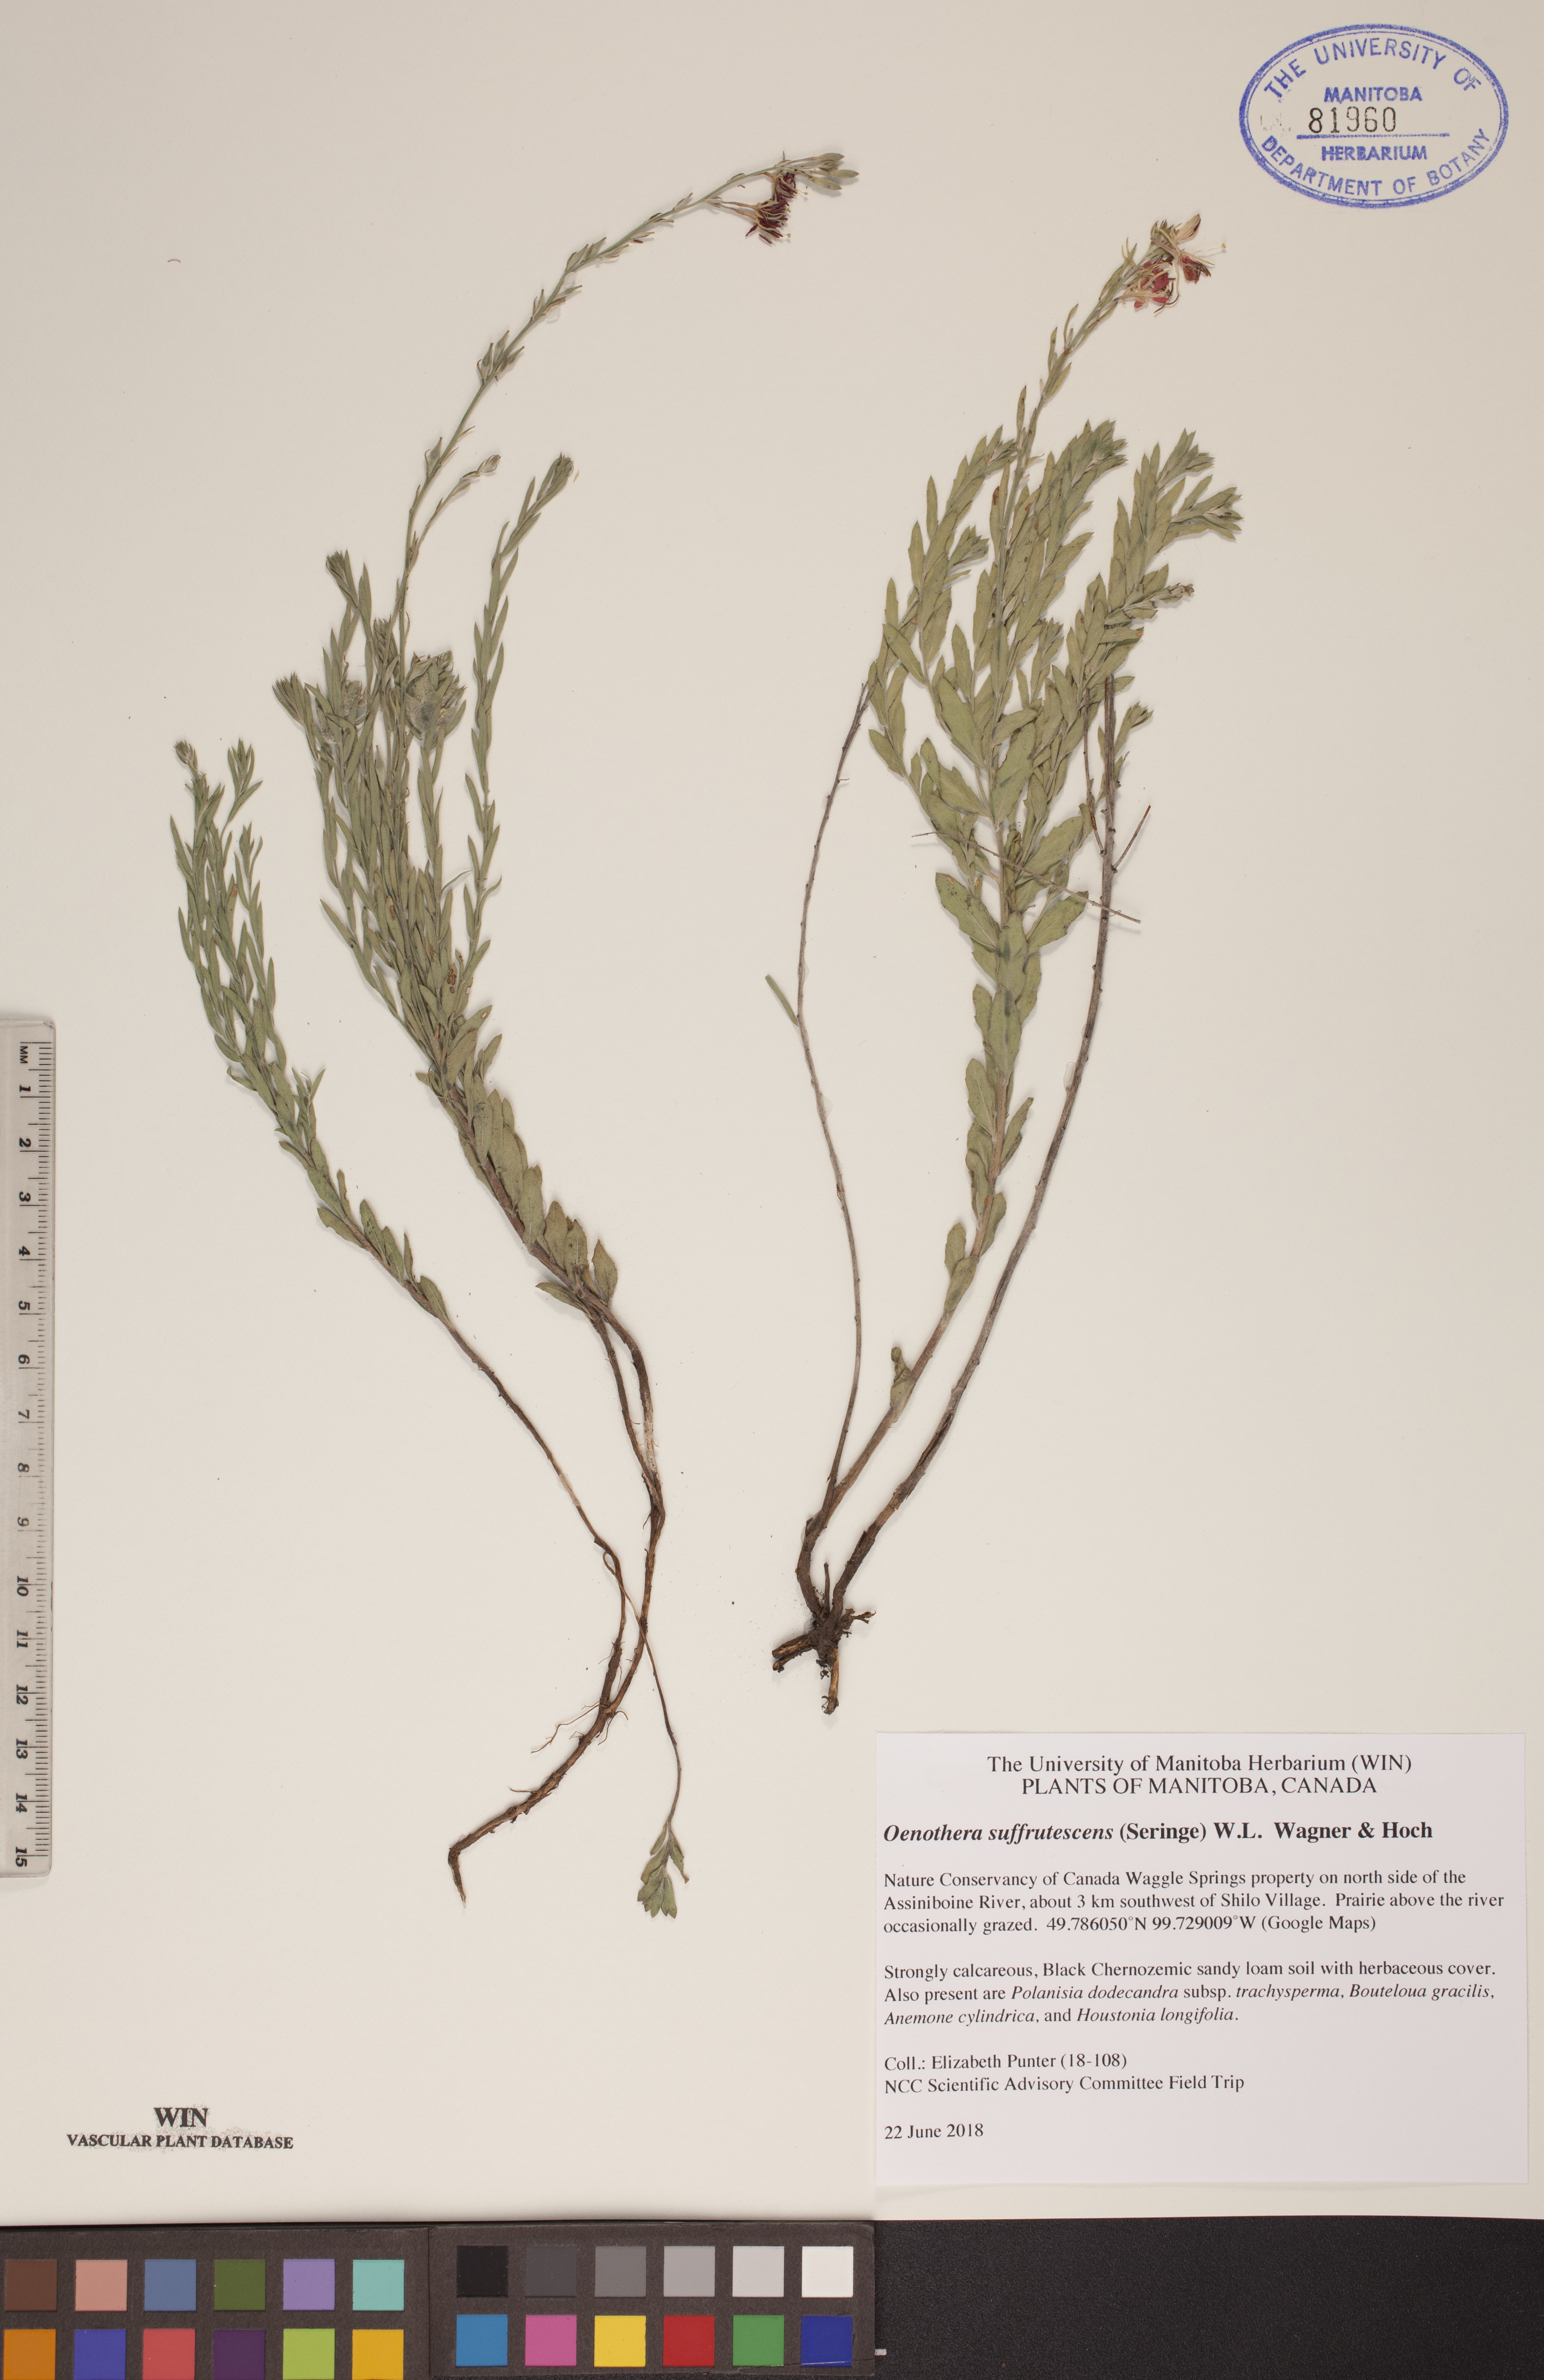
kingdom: Plantae
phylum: Tracheophyta
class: Magnoliopsida
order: Myrtales
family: Onagraceae
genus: Oenothera
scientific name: Oenothera suffrutescens
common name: Scarlet beeblossom
